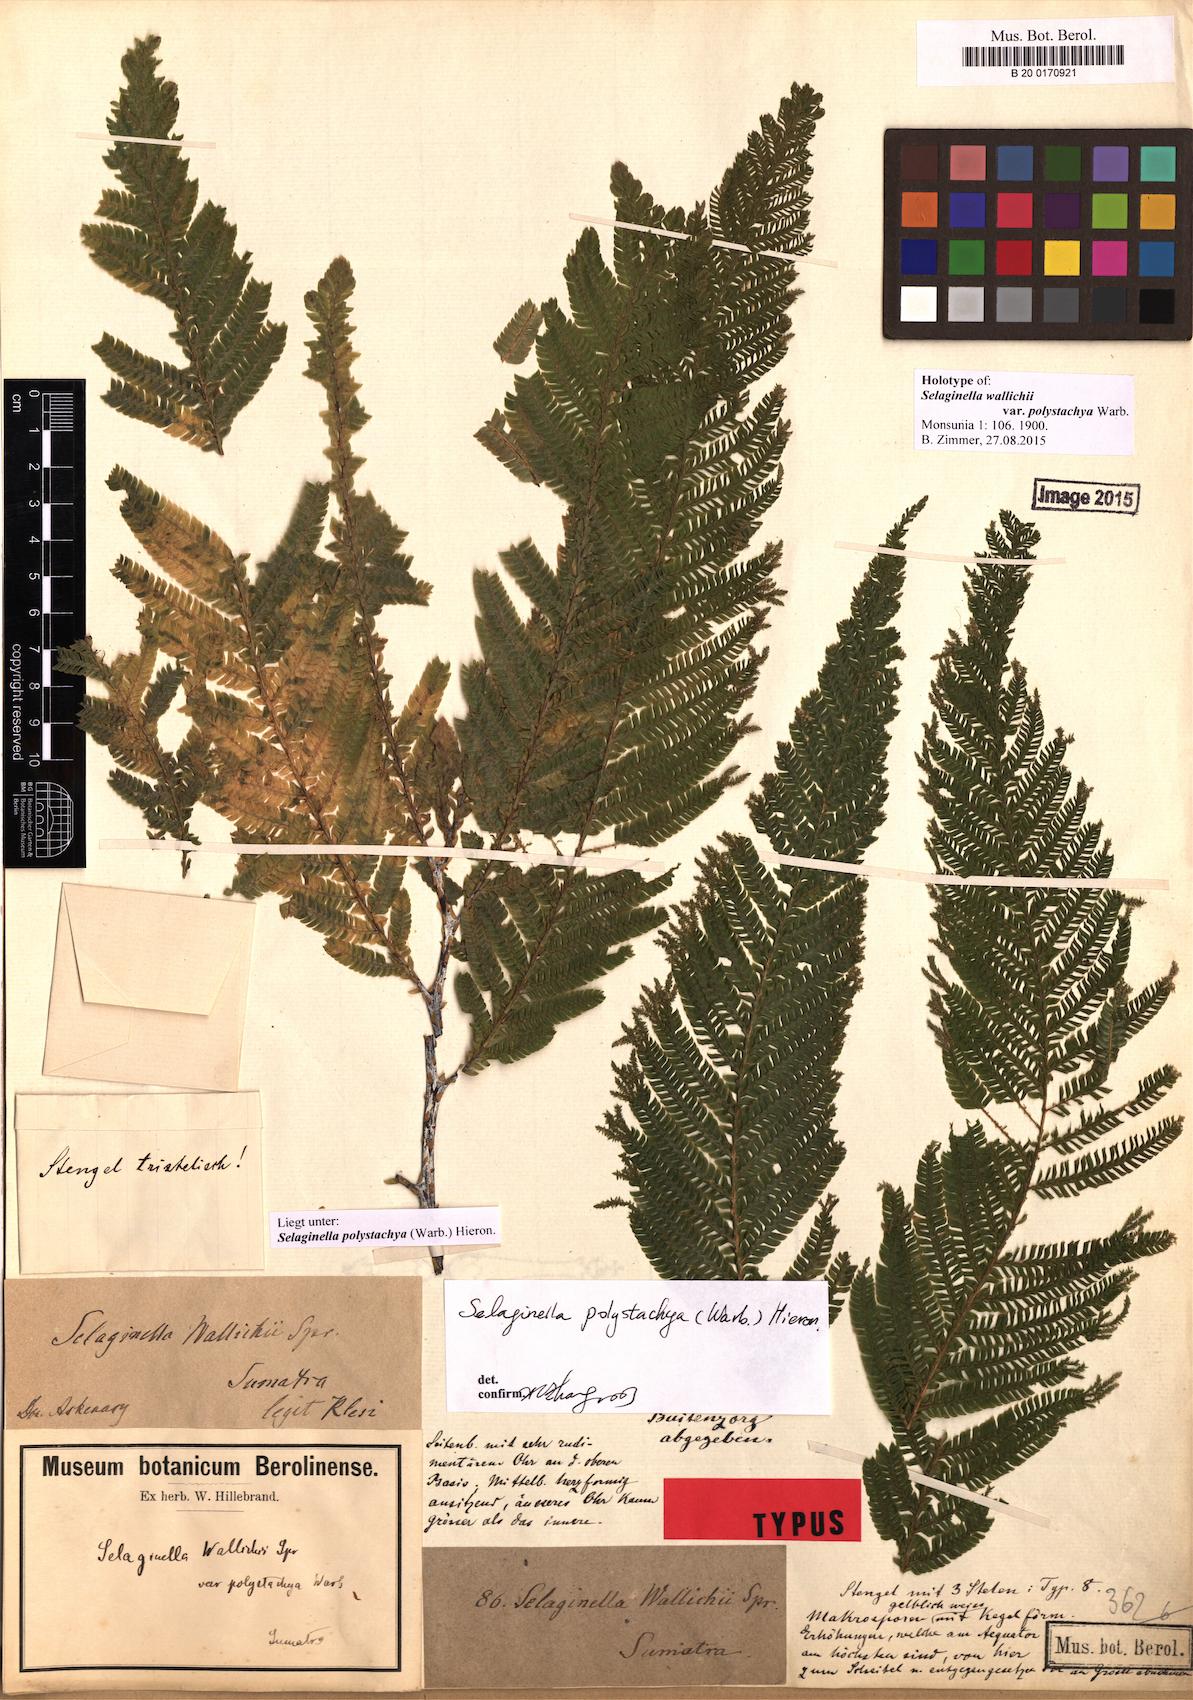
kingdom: Plantae
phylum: Tracheophyta
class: Lycopodiopsida
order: Selaginellales
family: Selaginellaceae
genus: Selaginella
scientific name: Selaginella polystachya
